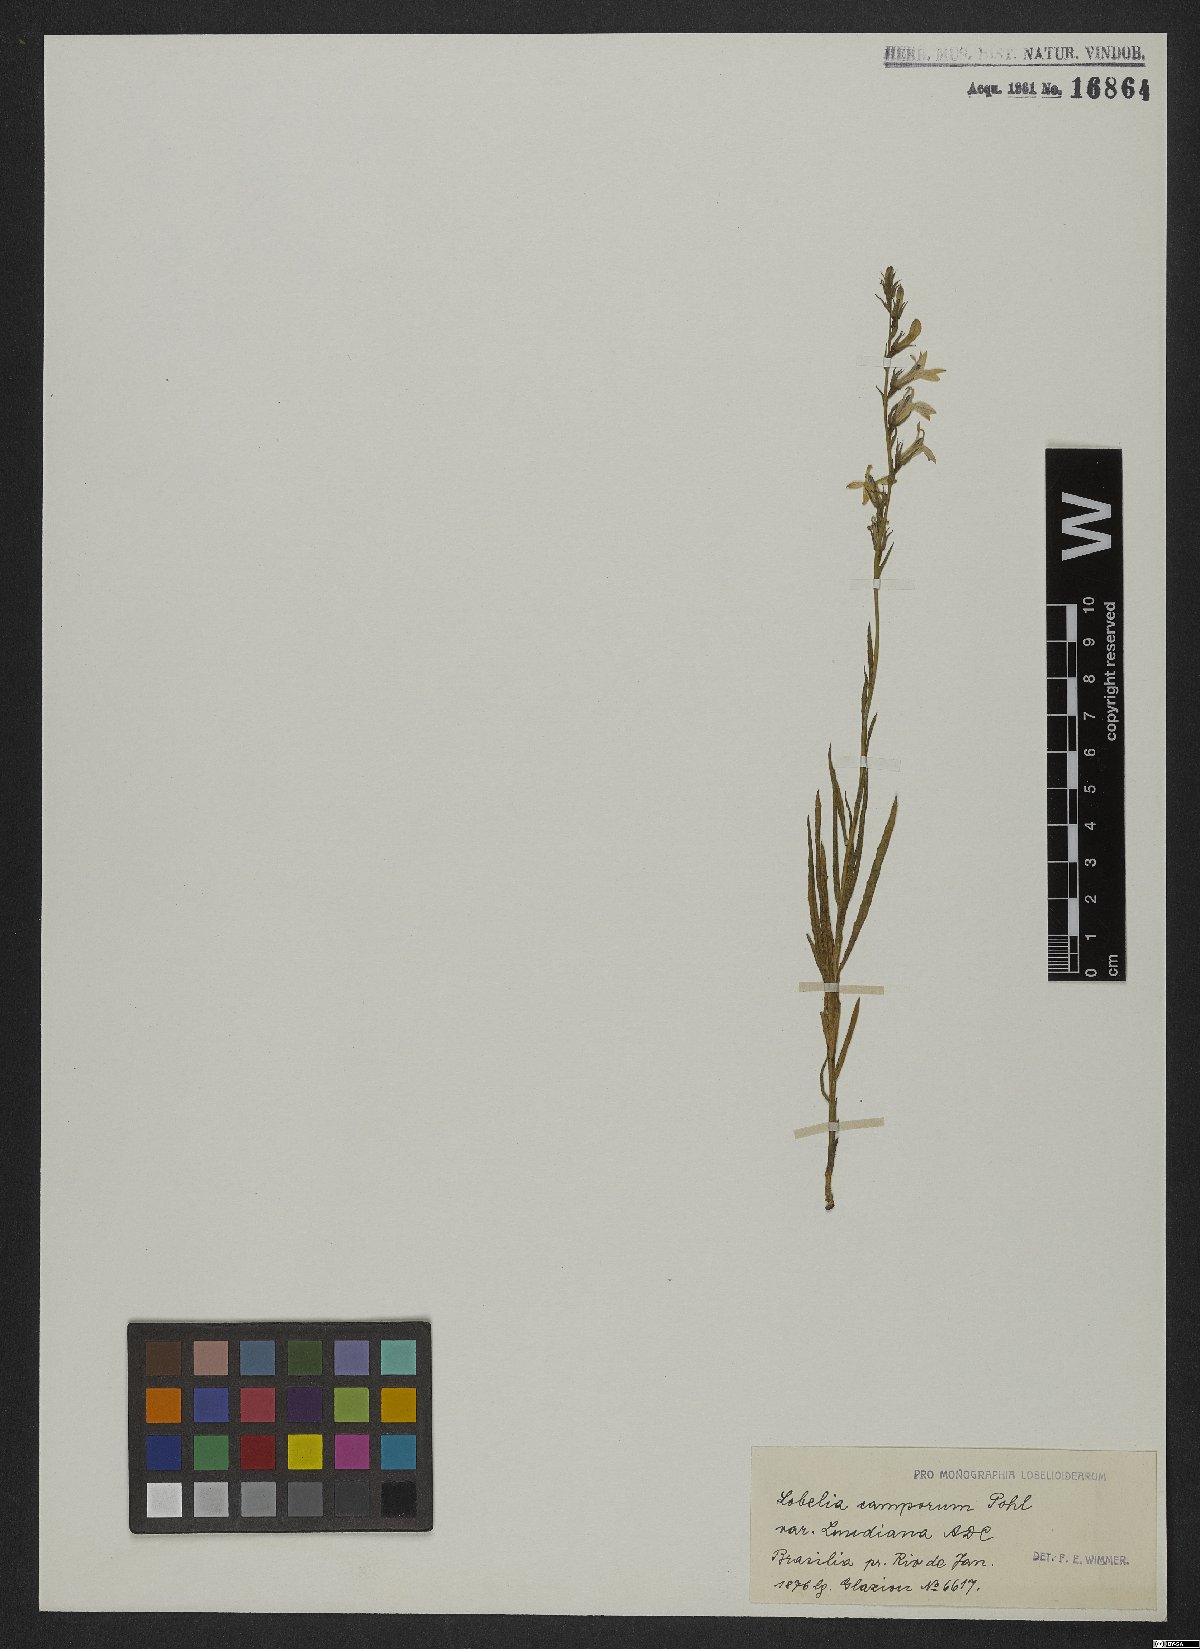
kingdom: Plantae
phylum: Tracheophyta
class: Magnoliopsida
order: Asterales
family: Campanulaceae
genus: Lobelia
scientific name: Lobelia camporum
